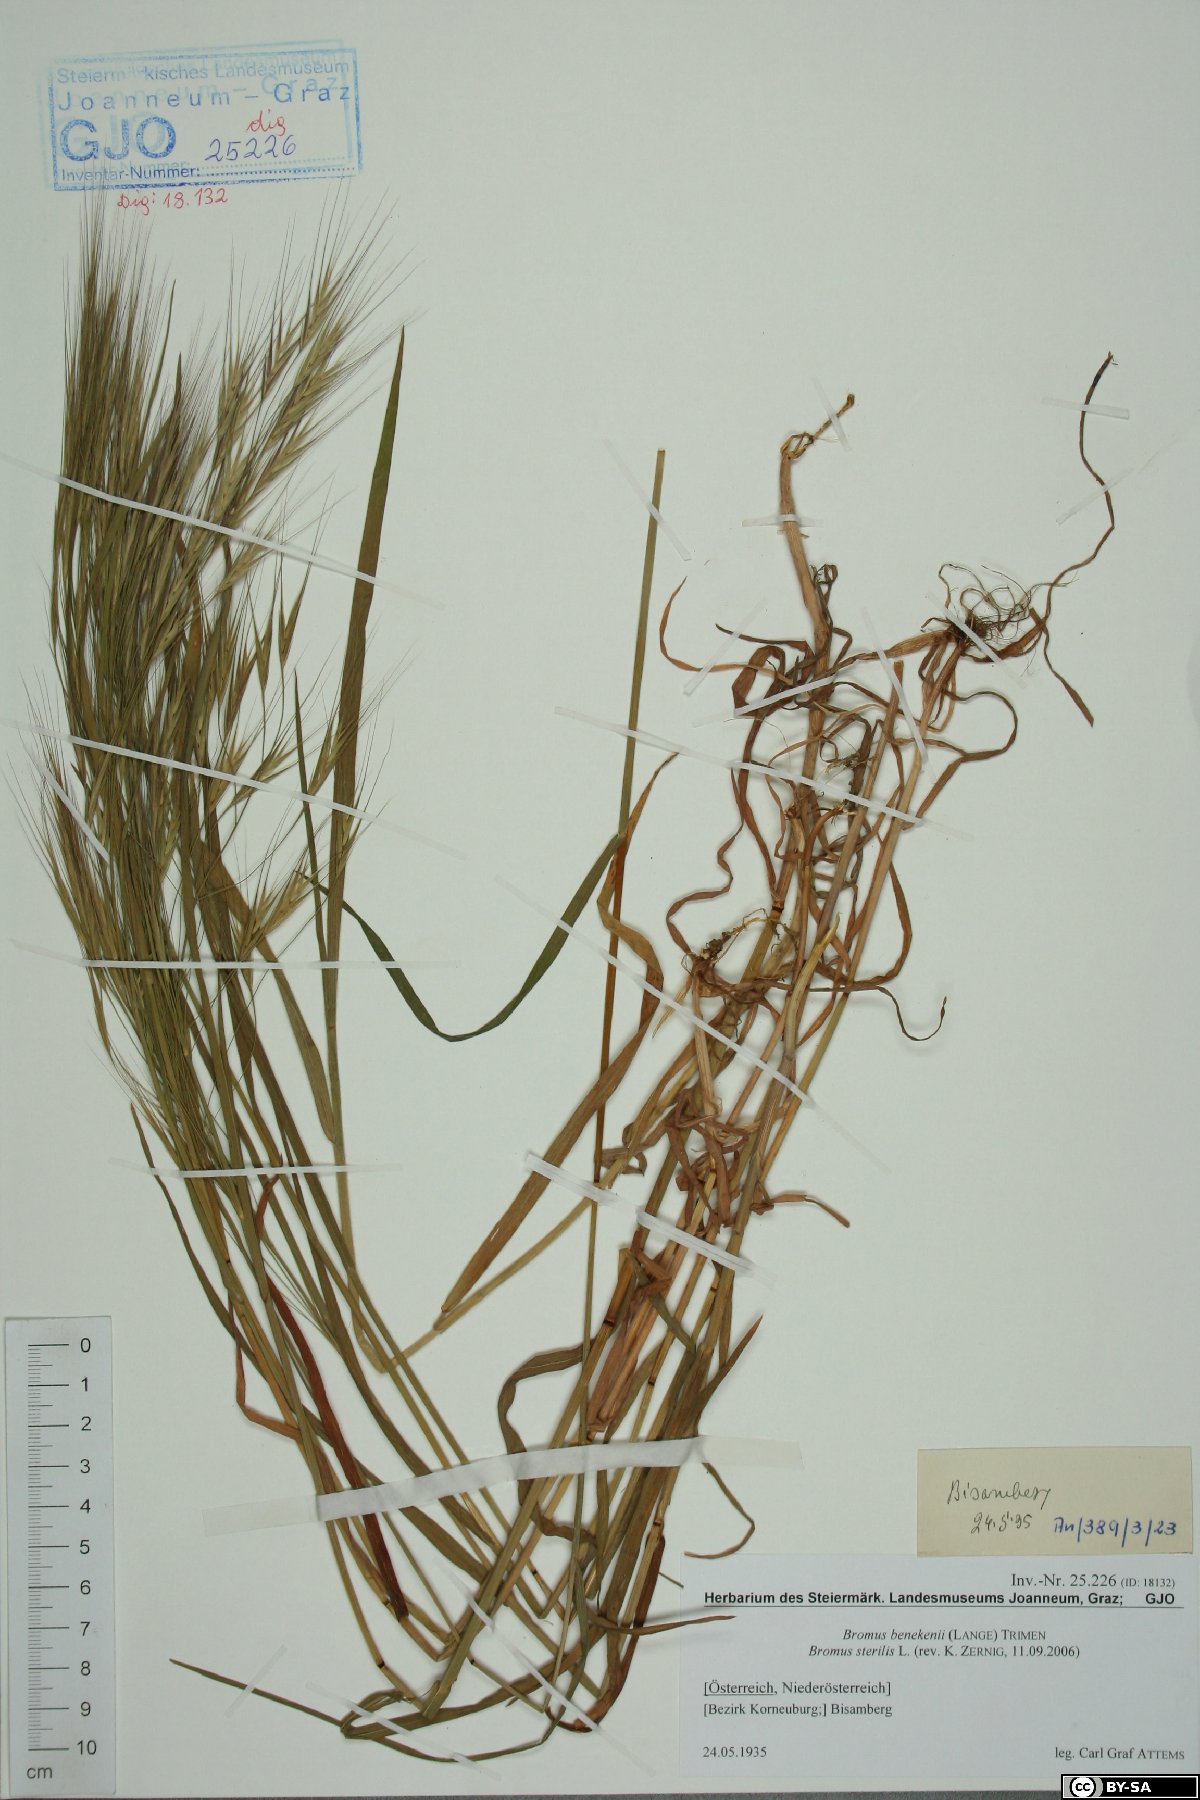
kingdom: Plantae
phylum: Tracheophyta
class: Liliopsida
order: Poales
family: Poaceae
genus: Bromus
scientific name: Bromus sterilis
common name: Poverty brome
